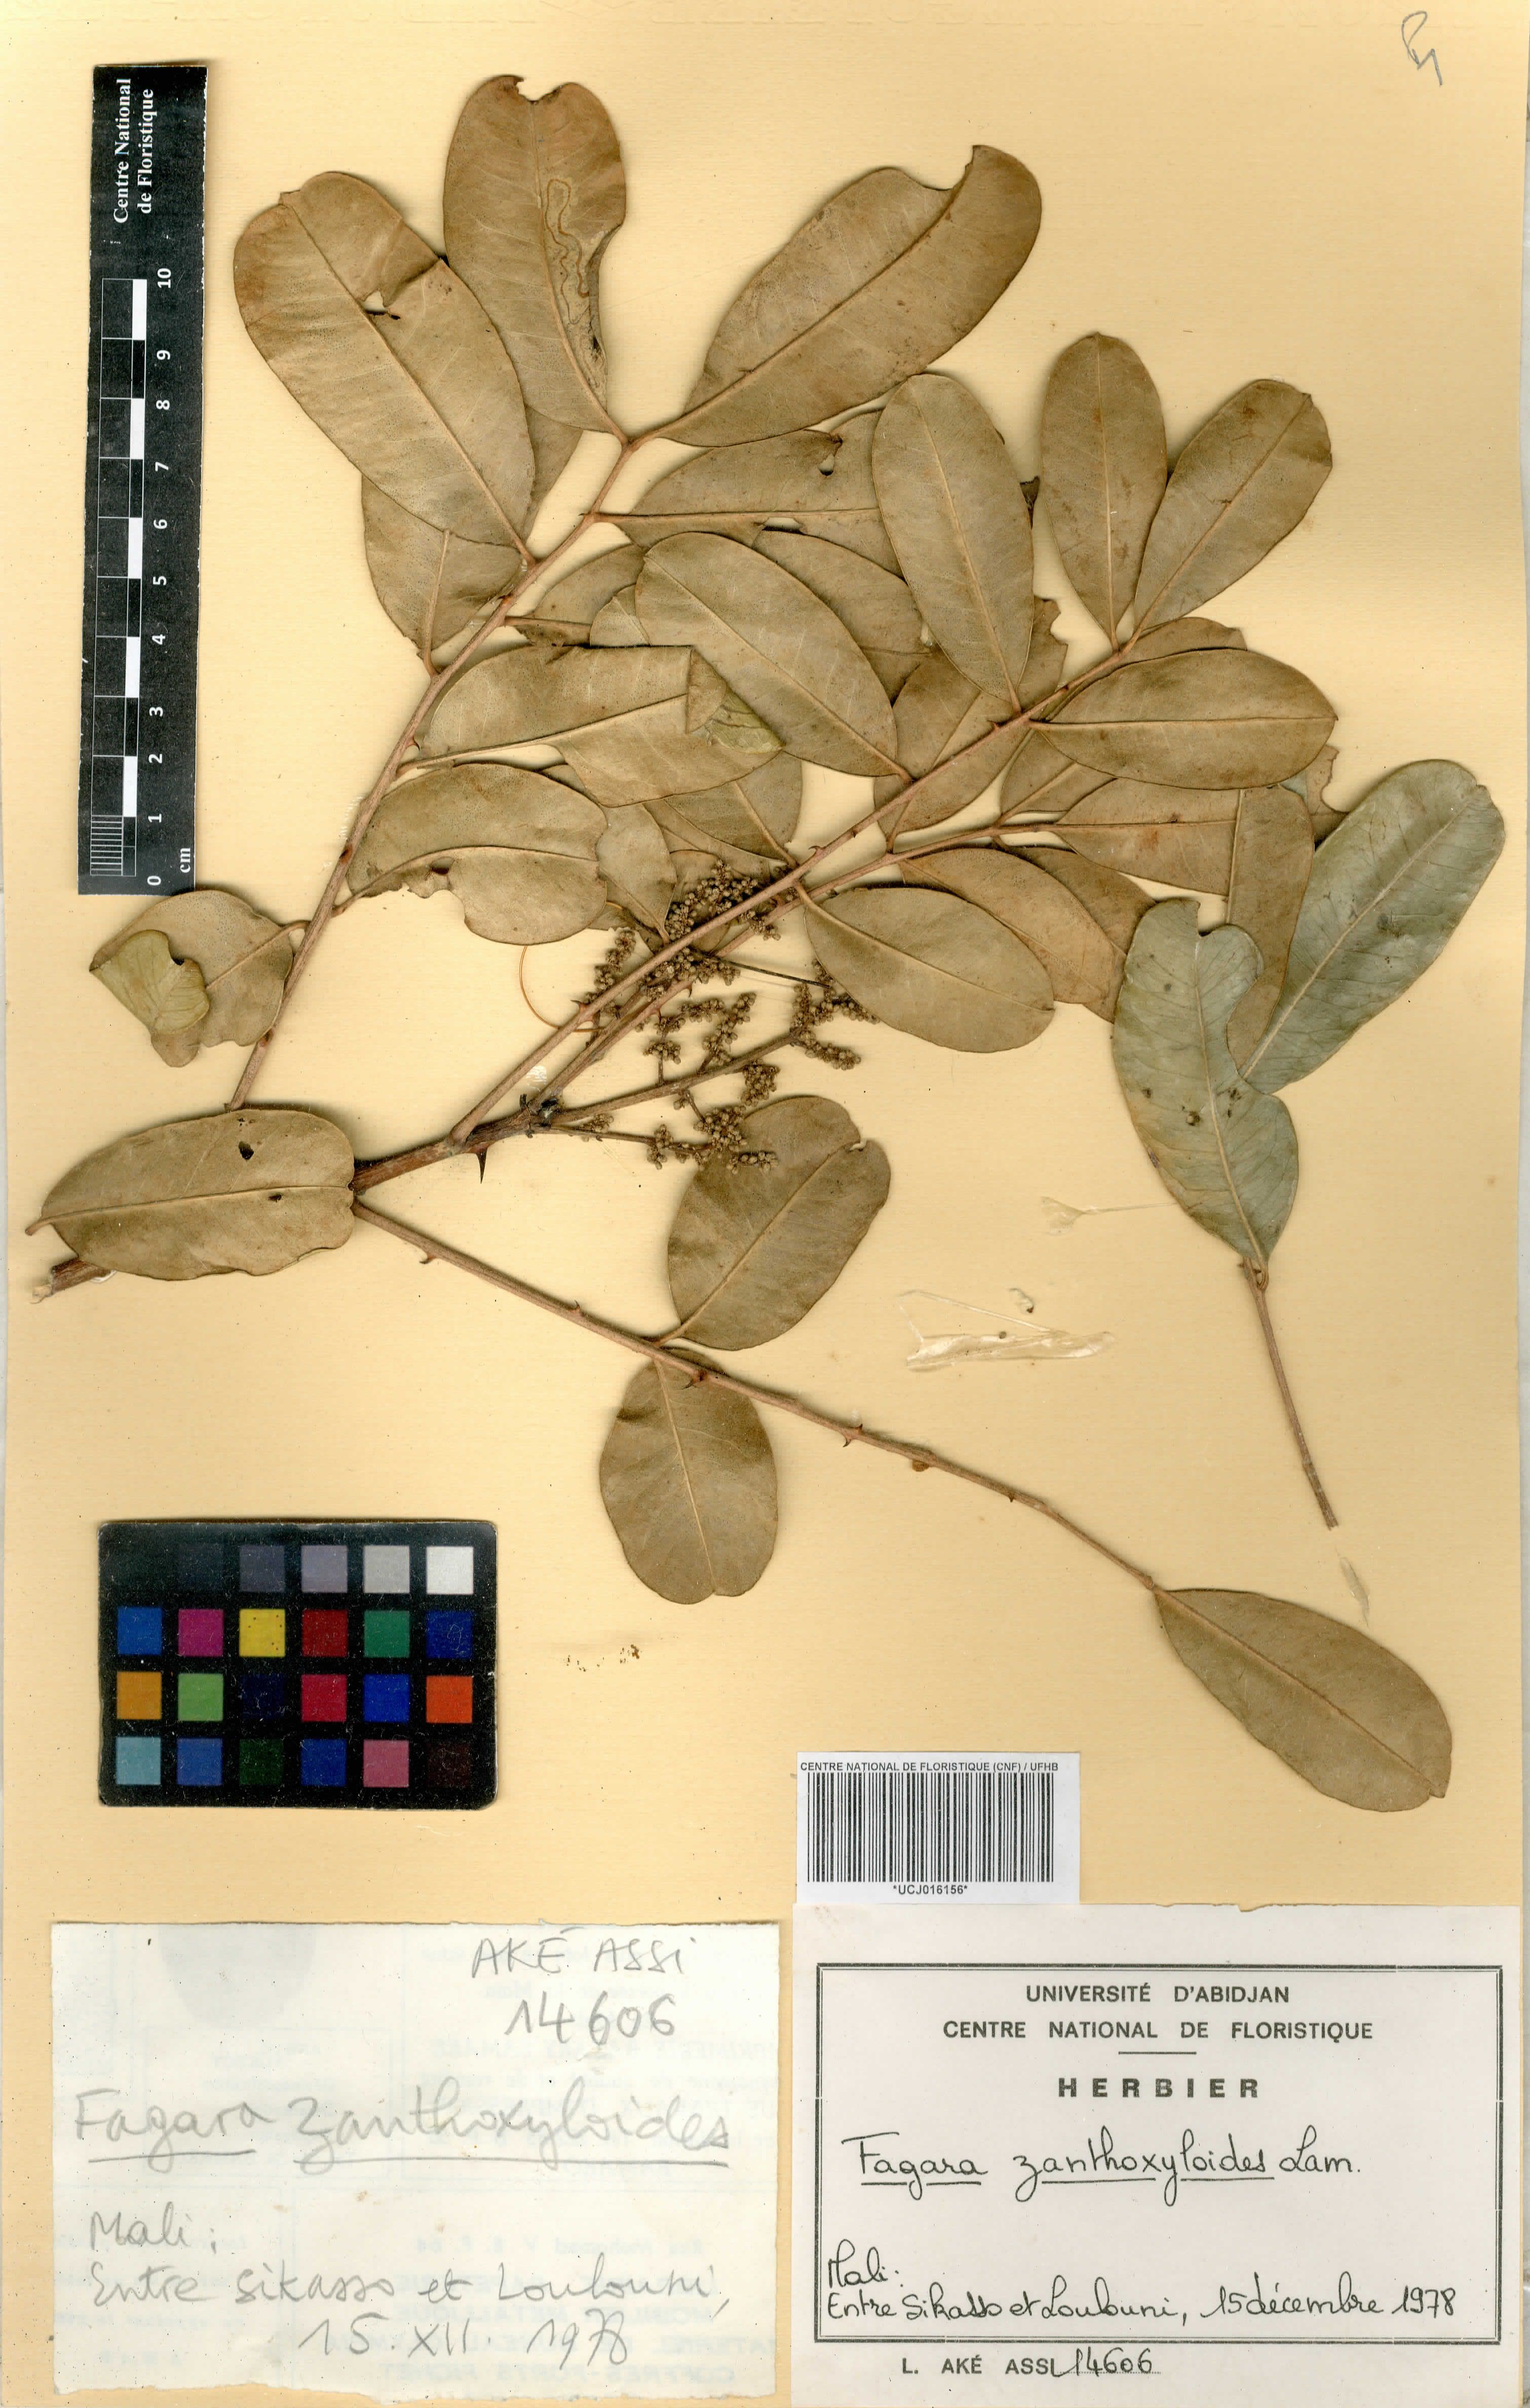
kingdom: Plantae
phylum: Tracheophyta
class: Magnoliopsida
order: Sapindales
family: Rutaceae
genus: Zanthoxylum
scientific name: Zanthoxylum zanthoxyloides
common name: Senegal prickly-ash
